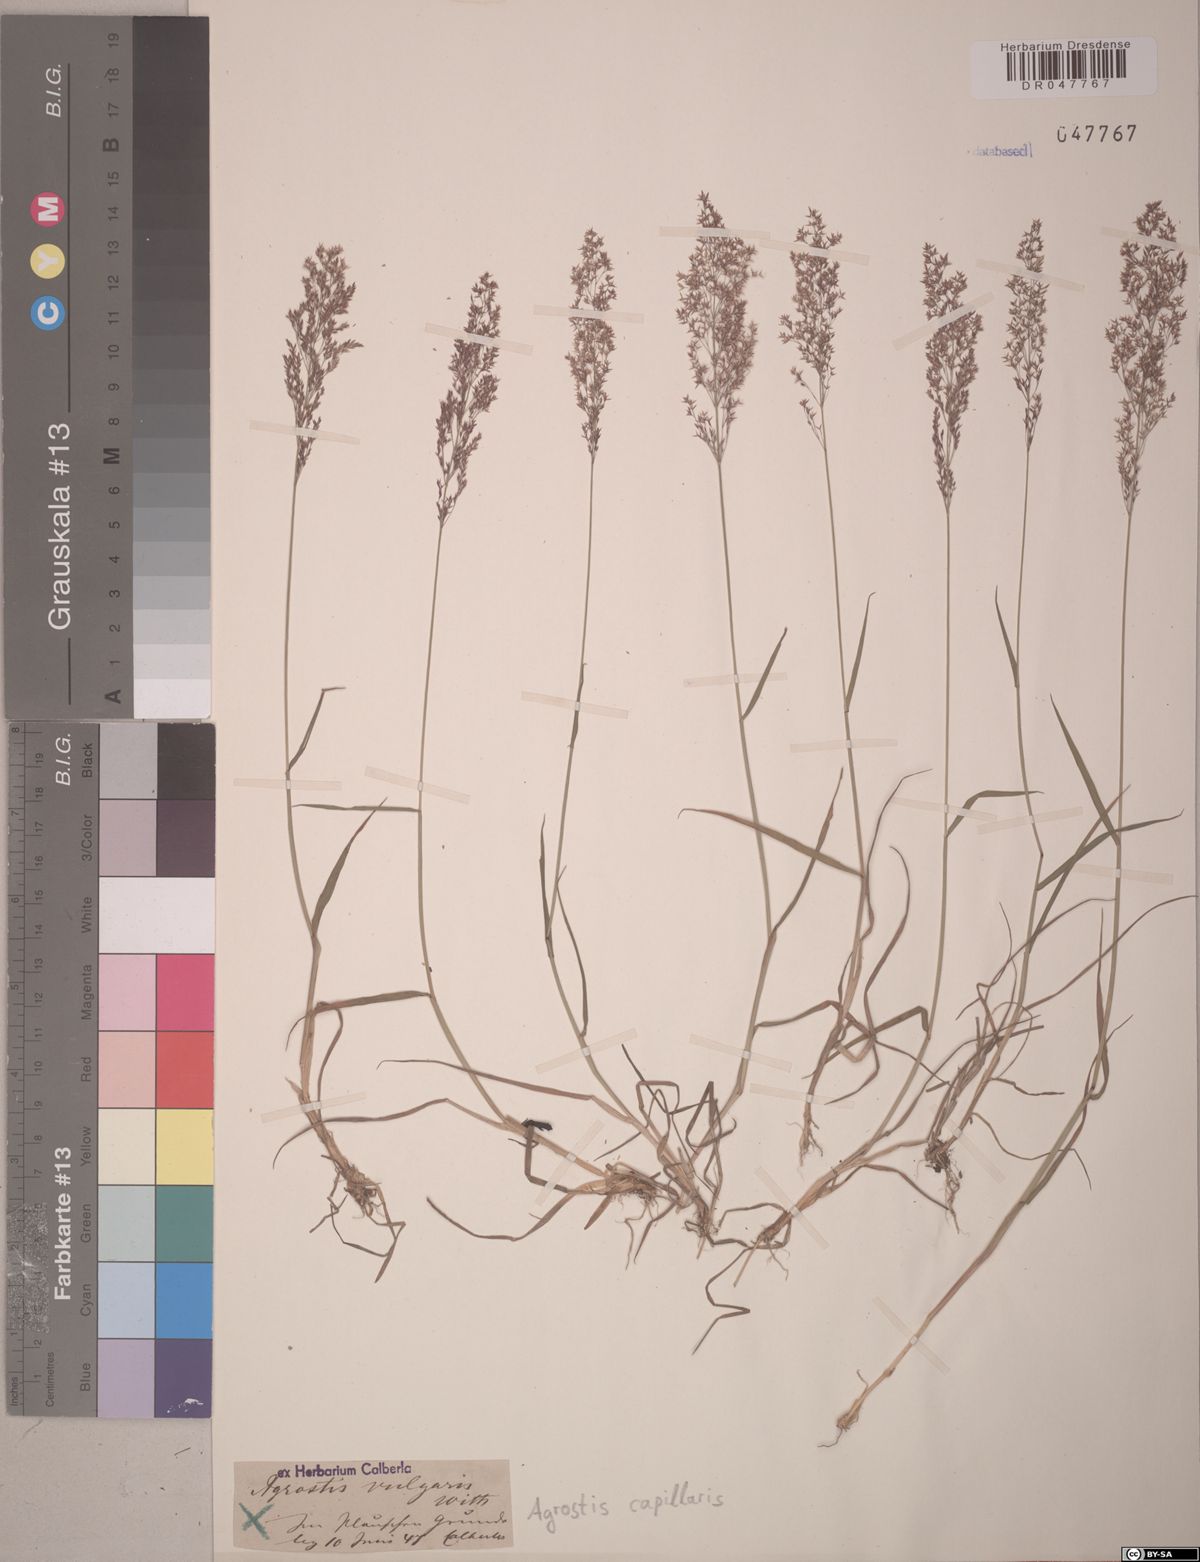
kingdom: Plantae
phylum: Tracheophyta
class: Liliopsida
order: Poales
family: Poaceae
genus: Agrostis
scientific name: Agrostis capillaris
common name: Colonial bentgrass
